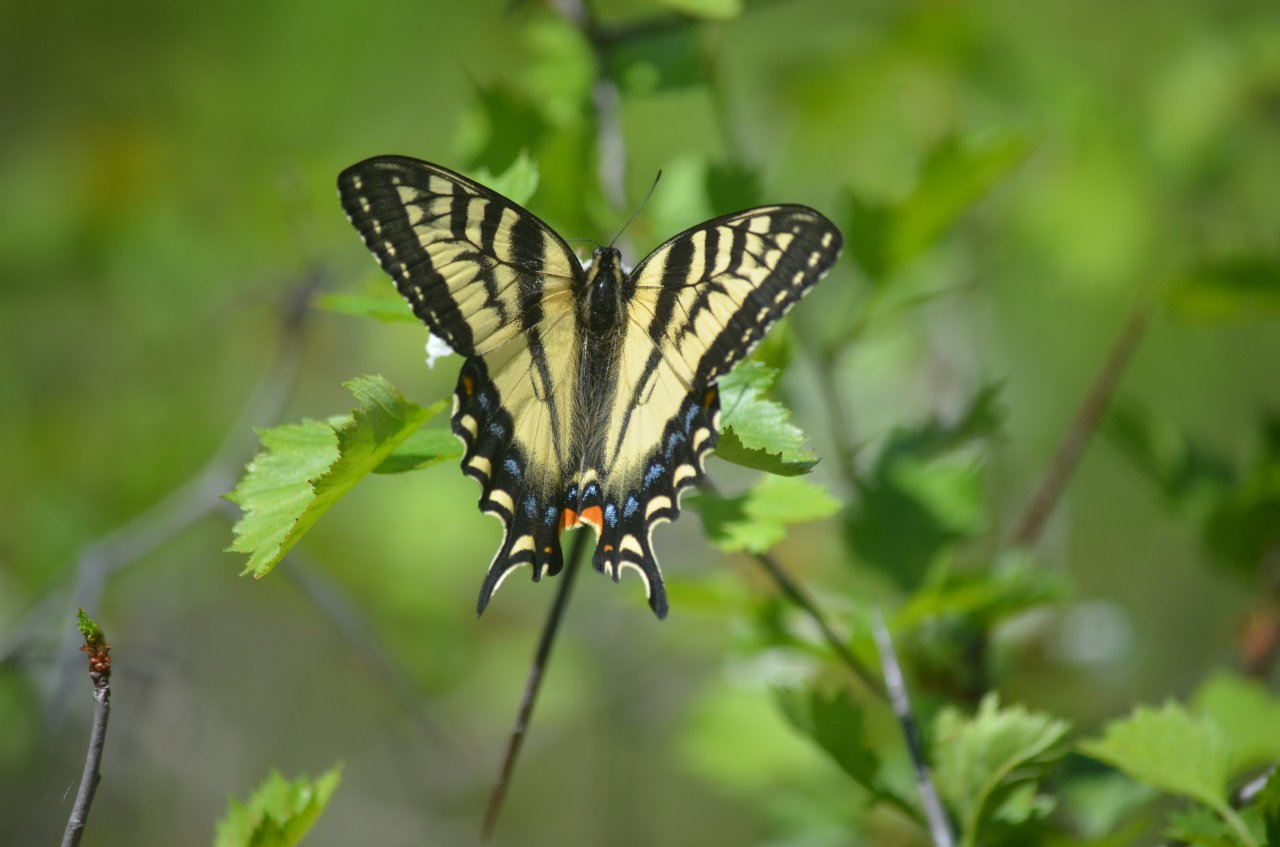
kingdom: Animalia
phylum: Arthropoda
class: Insecta
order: Lepidoptera
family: Papilionidae
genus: Pterourus
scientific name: Pterourus canadensis
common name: Canadian Tiger Swallowtail
